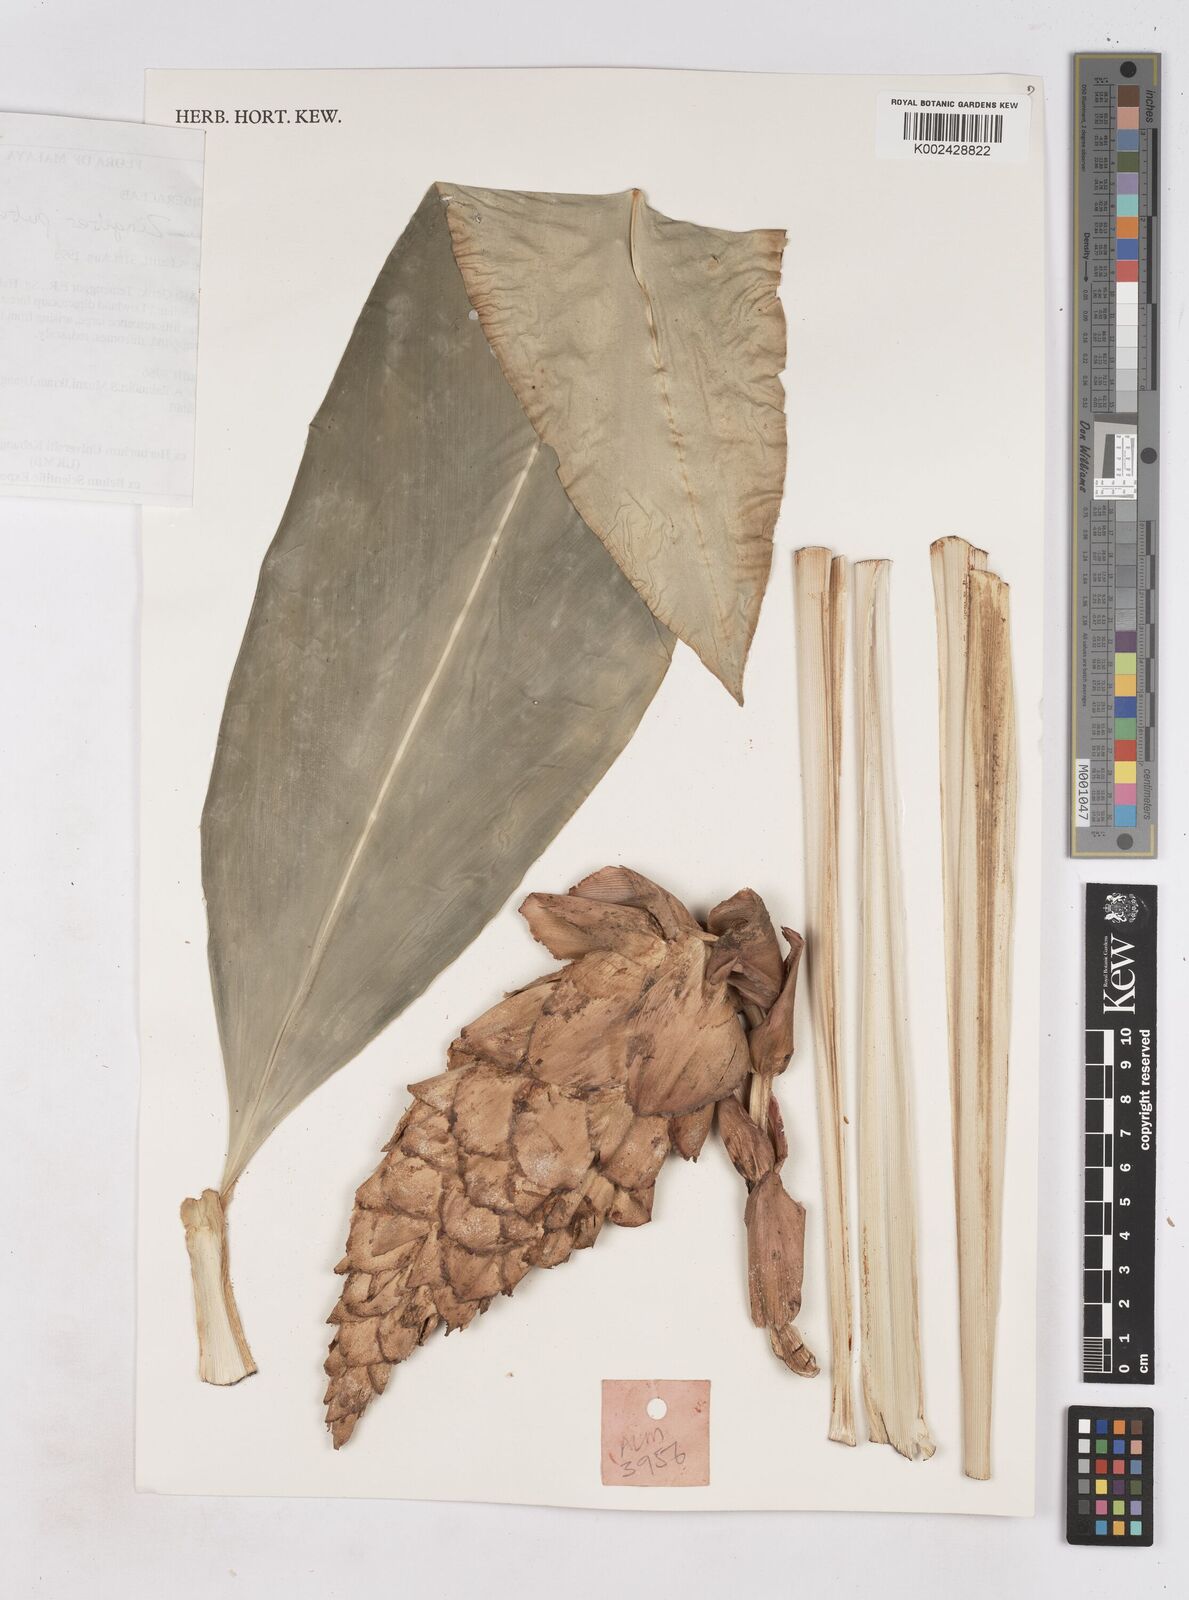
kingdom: Plantae
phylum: Tracheophyta
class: Liliopsida
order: Zingiberales
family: Zingiberaceae
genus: Zingiber
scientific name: Zingiber puberulum
